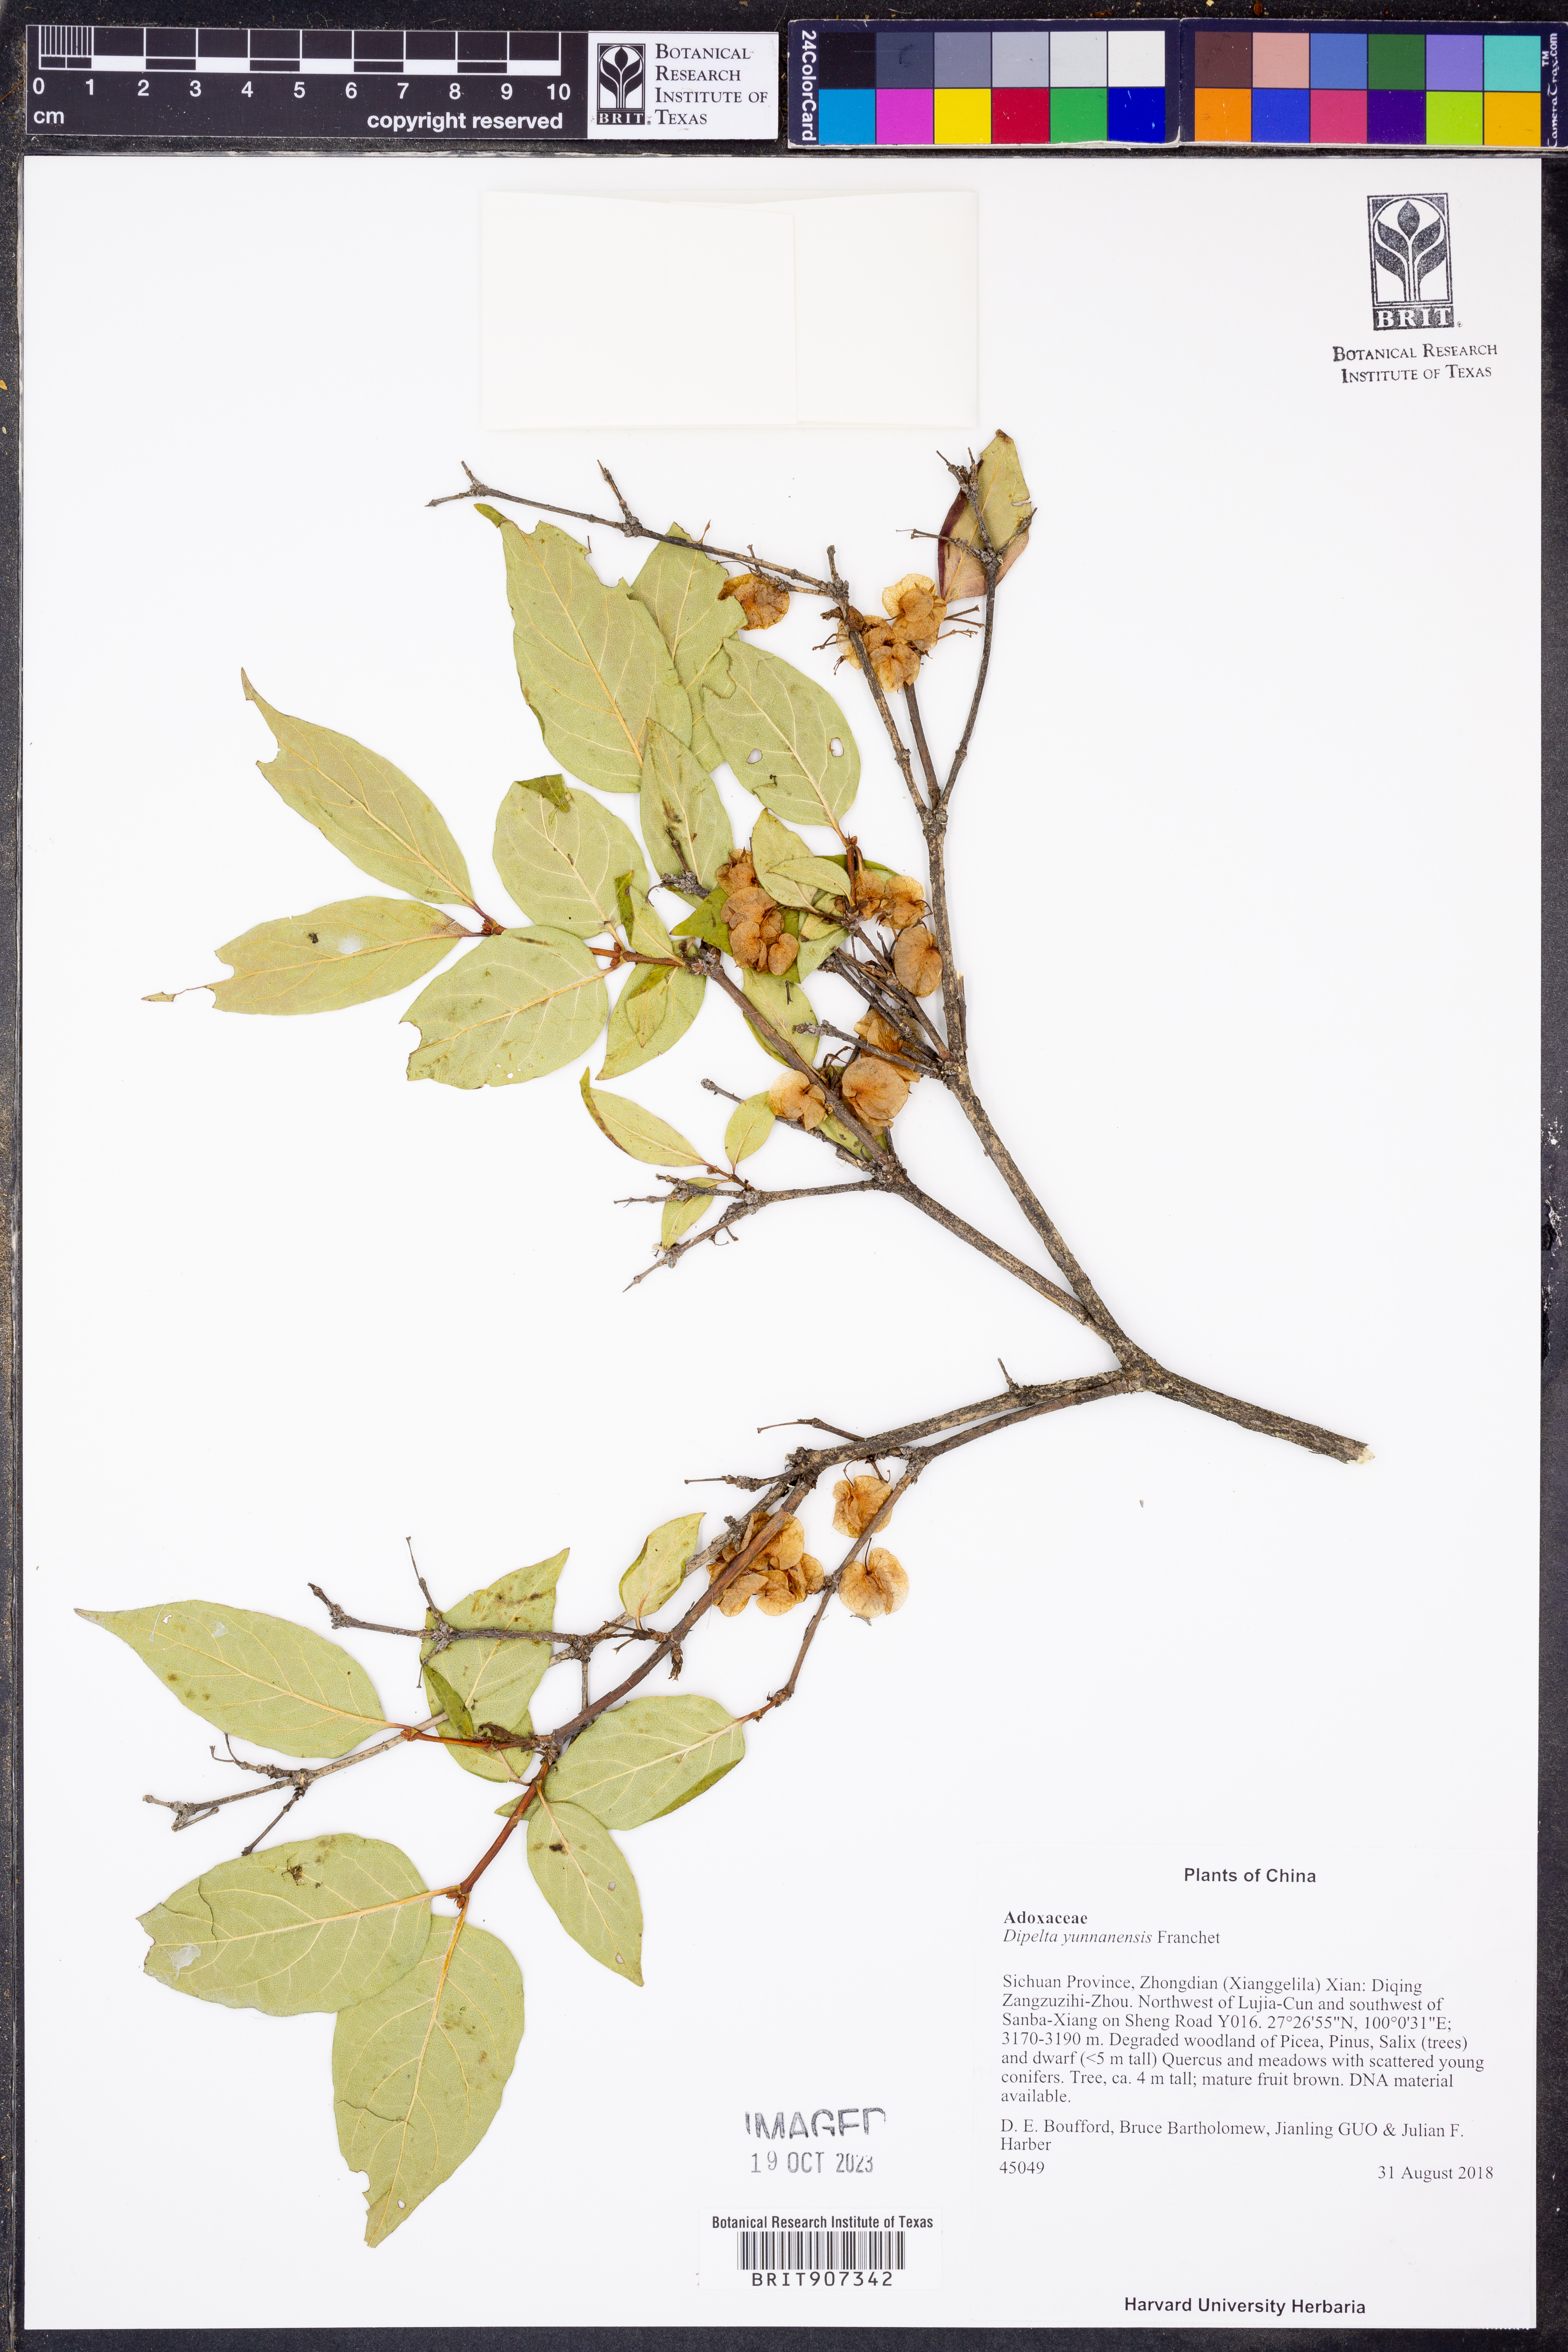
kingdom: Plantae
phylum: Tracheophyta
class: Magnoliopsida
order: Dipsacales
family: Caprifoliaceae
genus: Dipelta
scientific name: Dipelta yunnanensis
